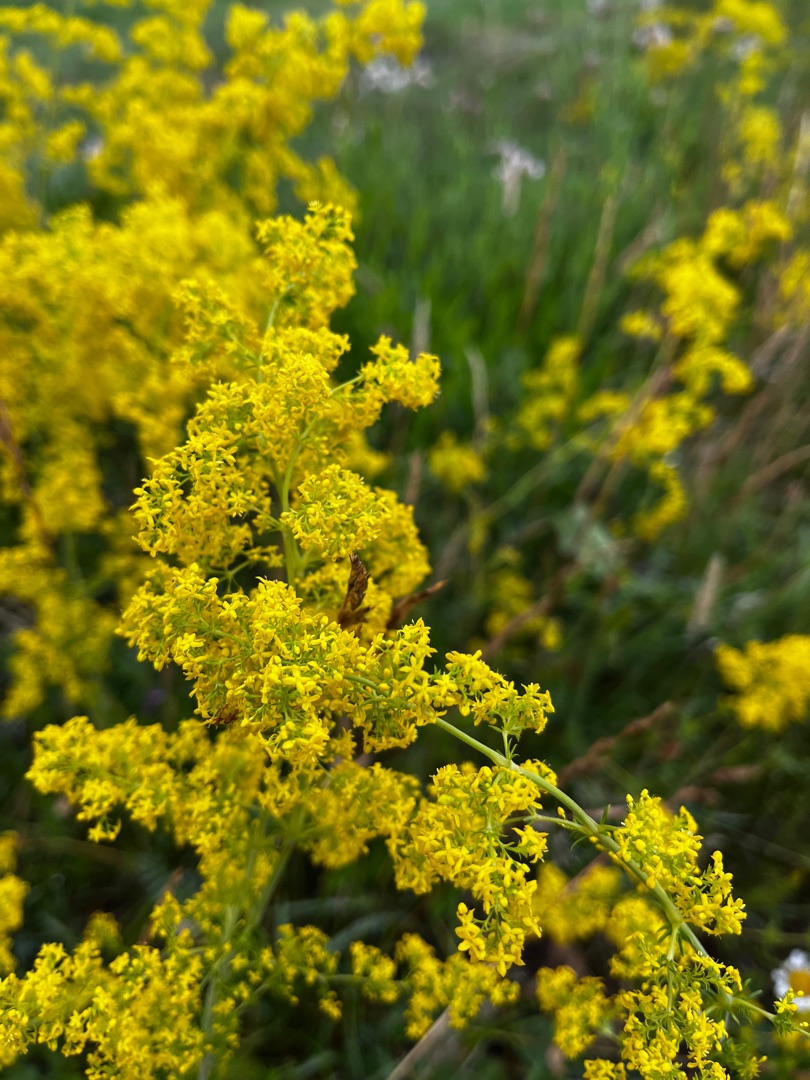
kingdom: Plantae
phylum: Tracheophyta
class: Magnoliopsida
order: Gentianales
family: Rubiaceae
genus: Galium
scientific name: Galium verum
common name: Gul snerre
